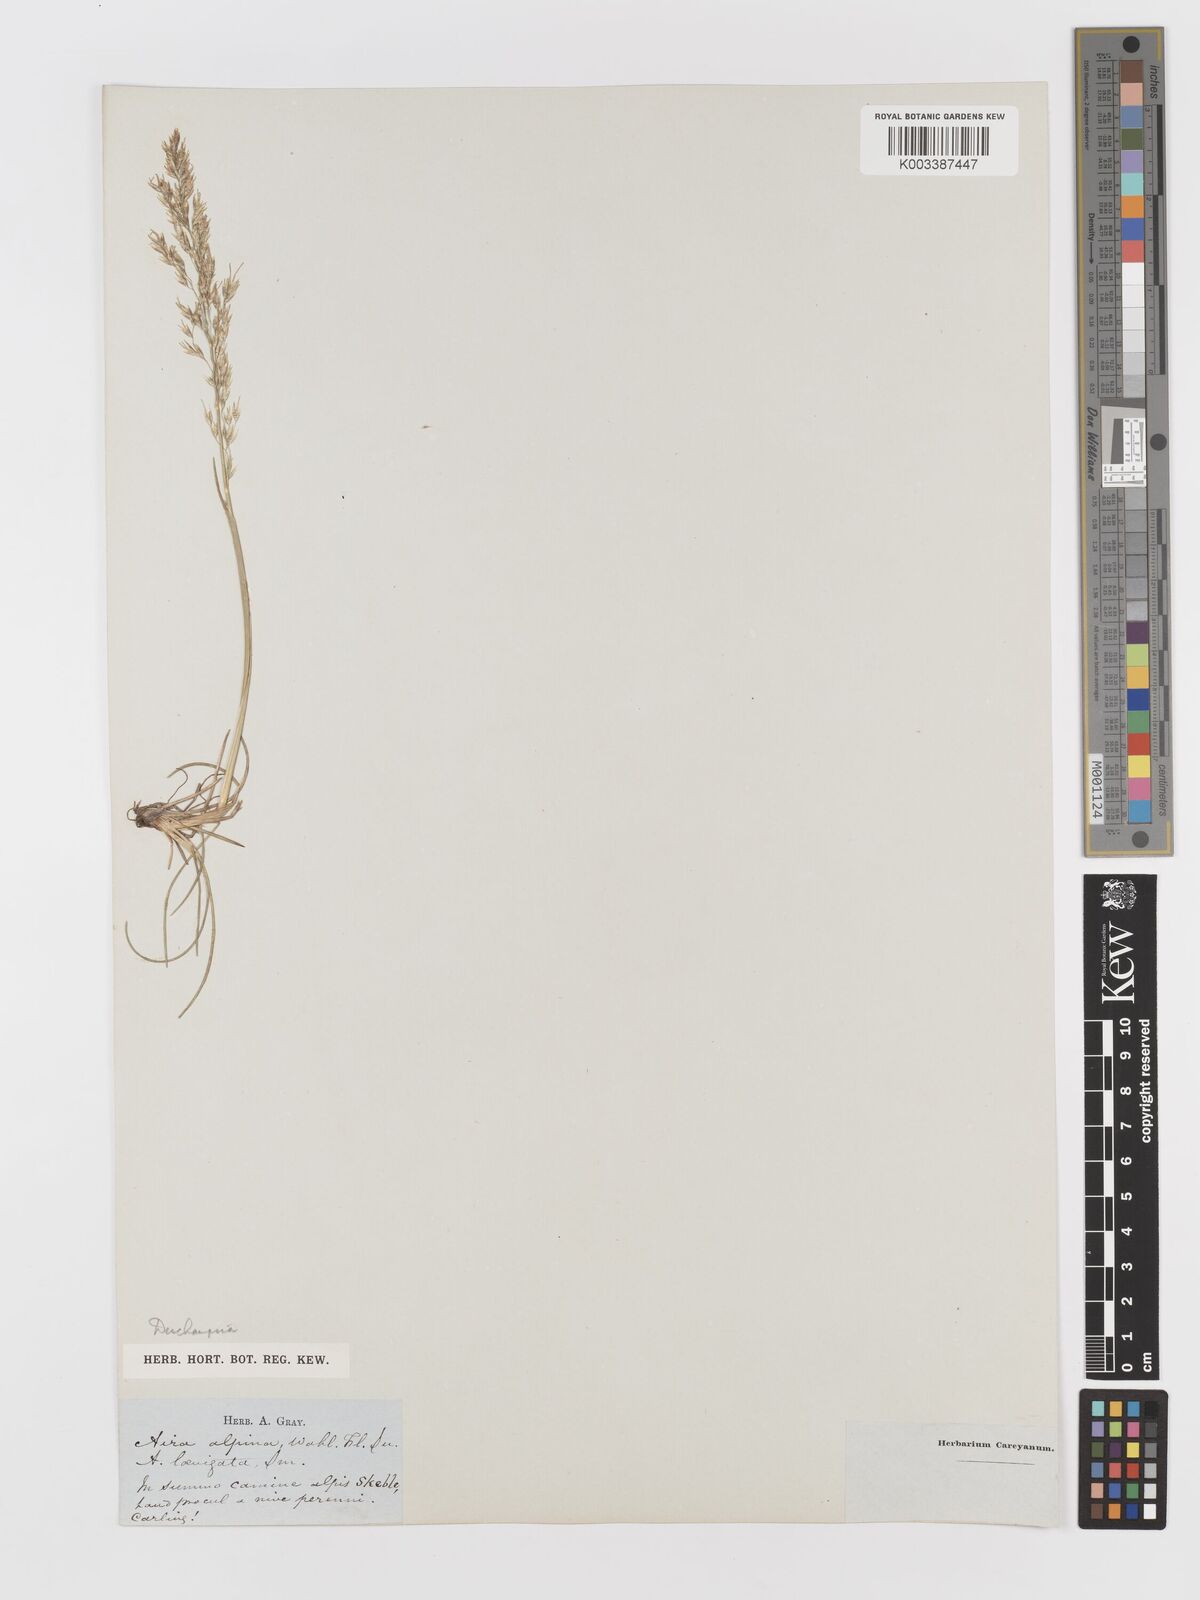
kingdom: Plantae
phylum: Tracheophyta
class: Liliopsida
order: Poales
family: Poaceae
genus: Deschampsia
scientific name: Deschampsia
